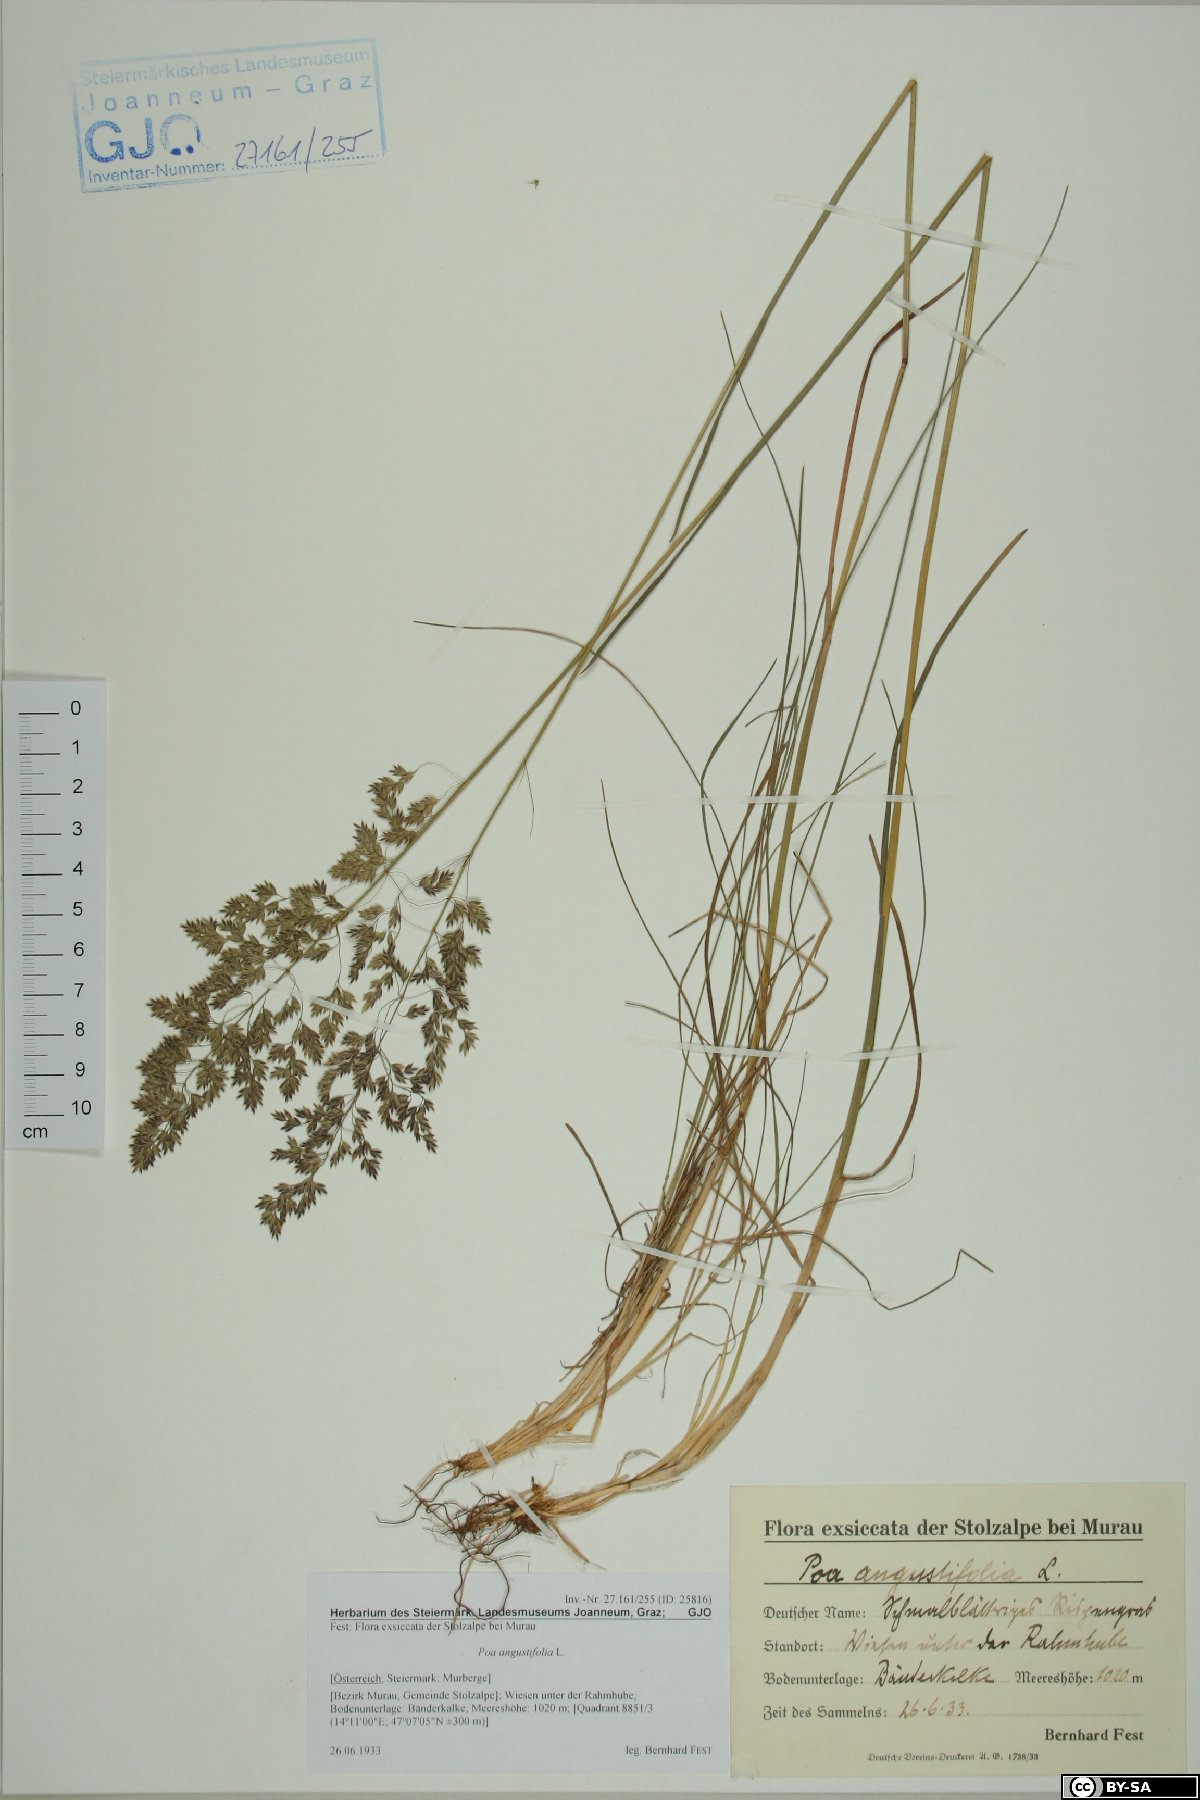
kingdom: Plantae
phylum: Tracheophyta
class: Liliopsida
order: Poales
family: Poaceae
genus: Poa
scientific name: Poa angustifolia
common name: Narrow-leaved meadow-grass
